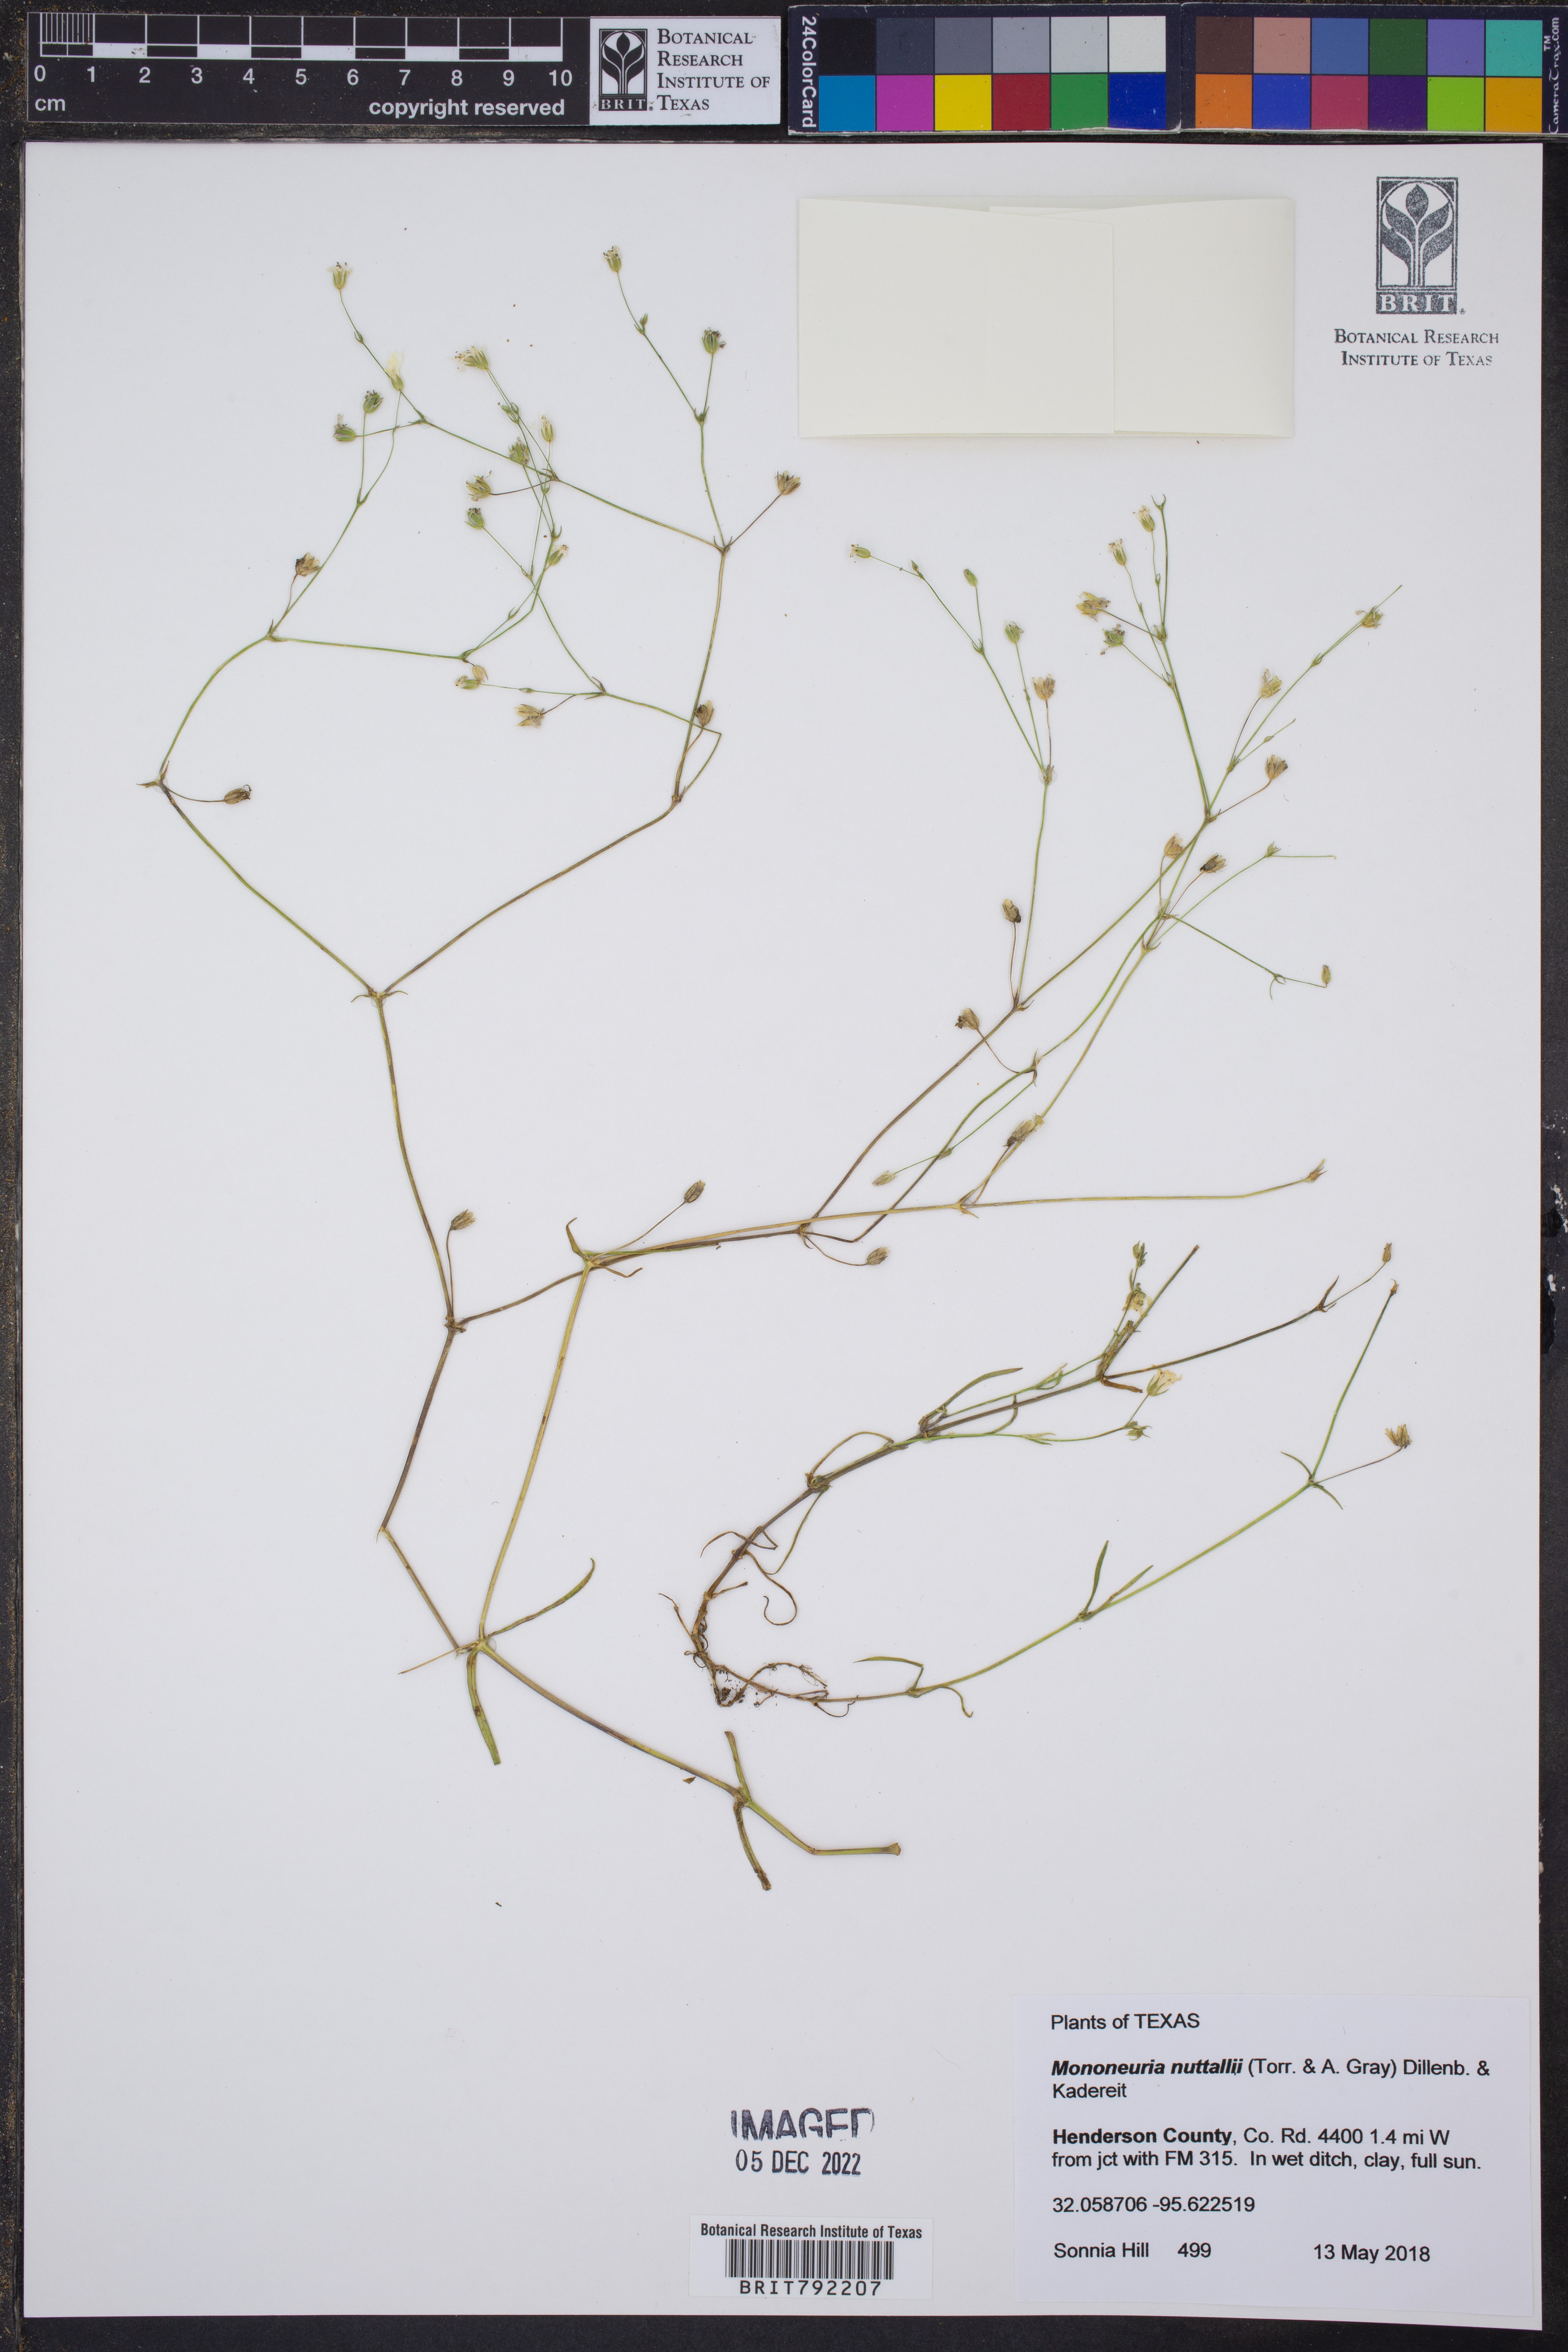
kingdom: Plantae
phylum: Tracheophyta
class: Magnoliopsida
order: Caryophyllales
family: Caryophyllaceae
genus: Geocarpon
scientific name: Geocarpon nuttallii
